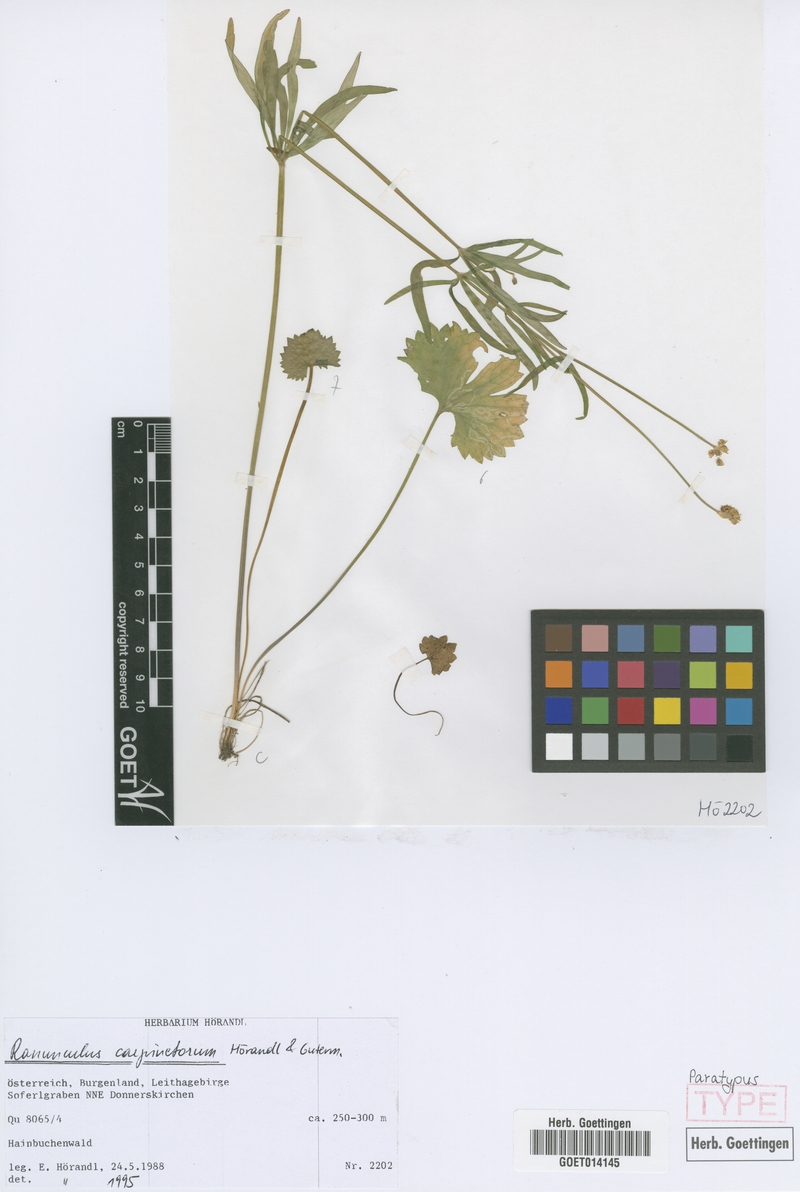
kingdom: Plantae
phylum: Tracheophyta
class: Magnoliopsida
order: Ranunculales
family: Ranunculaceae
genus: Ranunculus
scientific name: Ranunculus carpinetorum
